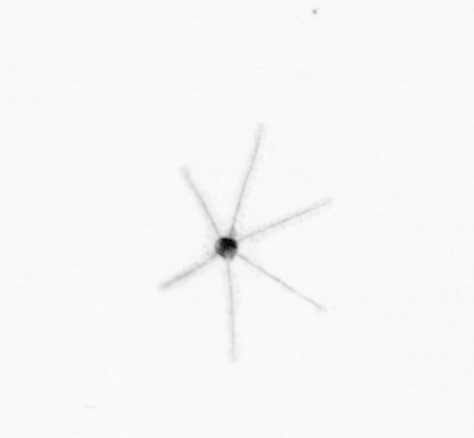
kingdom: Animalia
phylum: Cnidaria
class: Hydrozoa
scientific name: Hydrozoa
